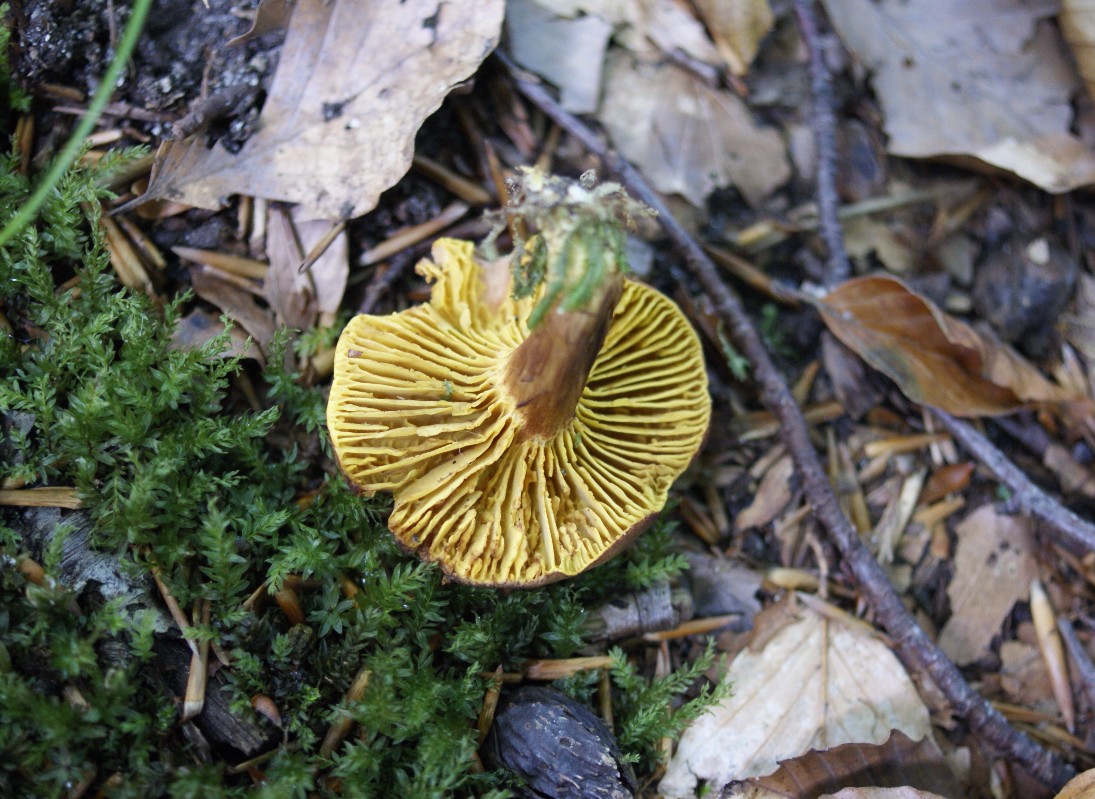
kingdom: Fungi
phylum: Basidiomycota
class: Agaricomycetes
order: Boletales
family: Boletaceae
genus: Phylloporus
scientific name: Phylloporus pelletieri
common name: lamelrørhat
